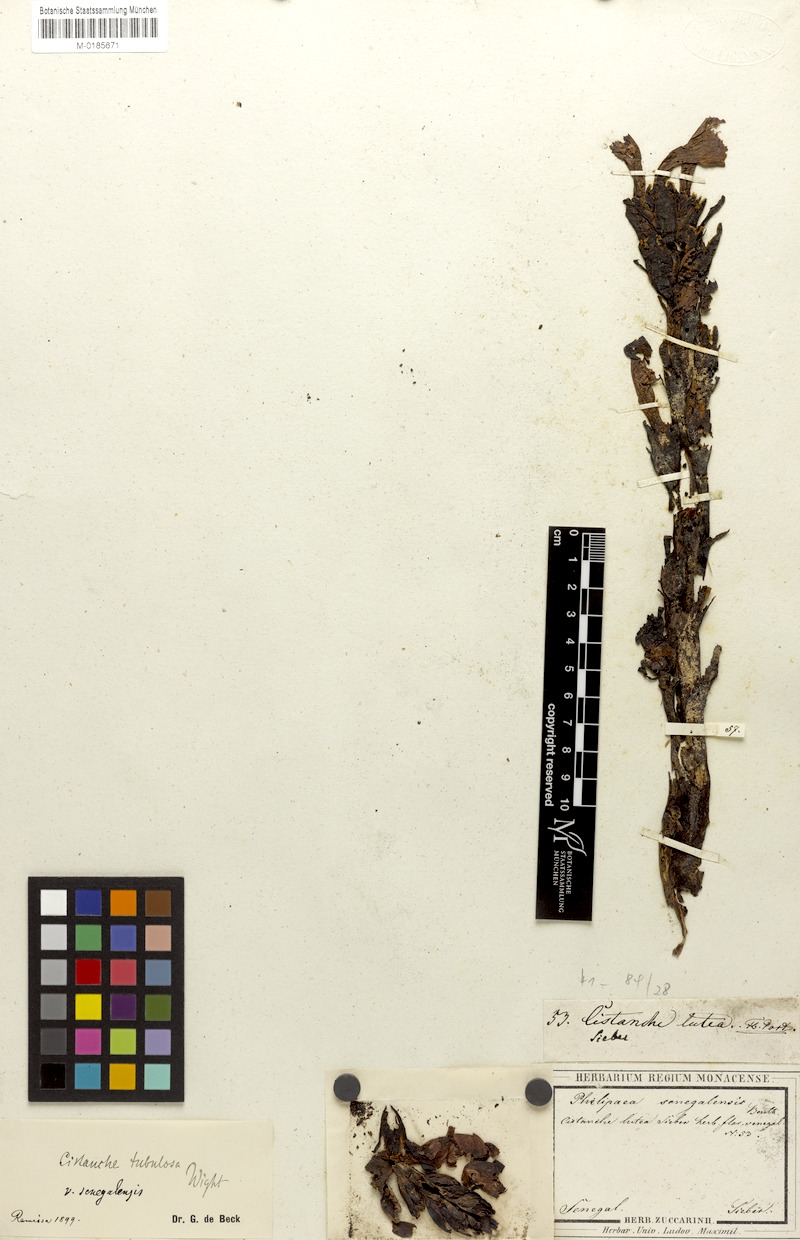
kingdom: Plantae
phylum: Tracheophyta
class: Magnoliopsida
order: Lamiales
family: Orobanchaceae
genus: Cistanche
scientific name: Cistanche phelypaea
